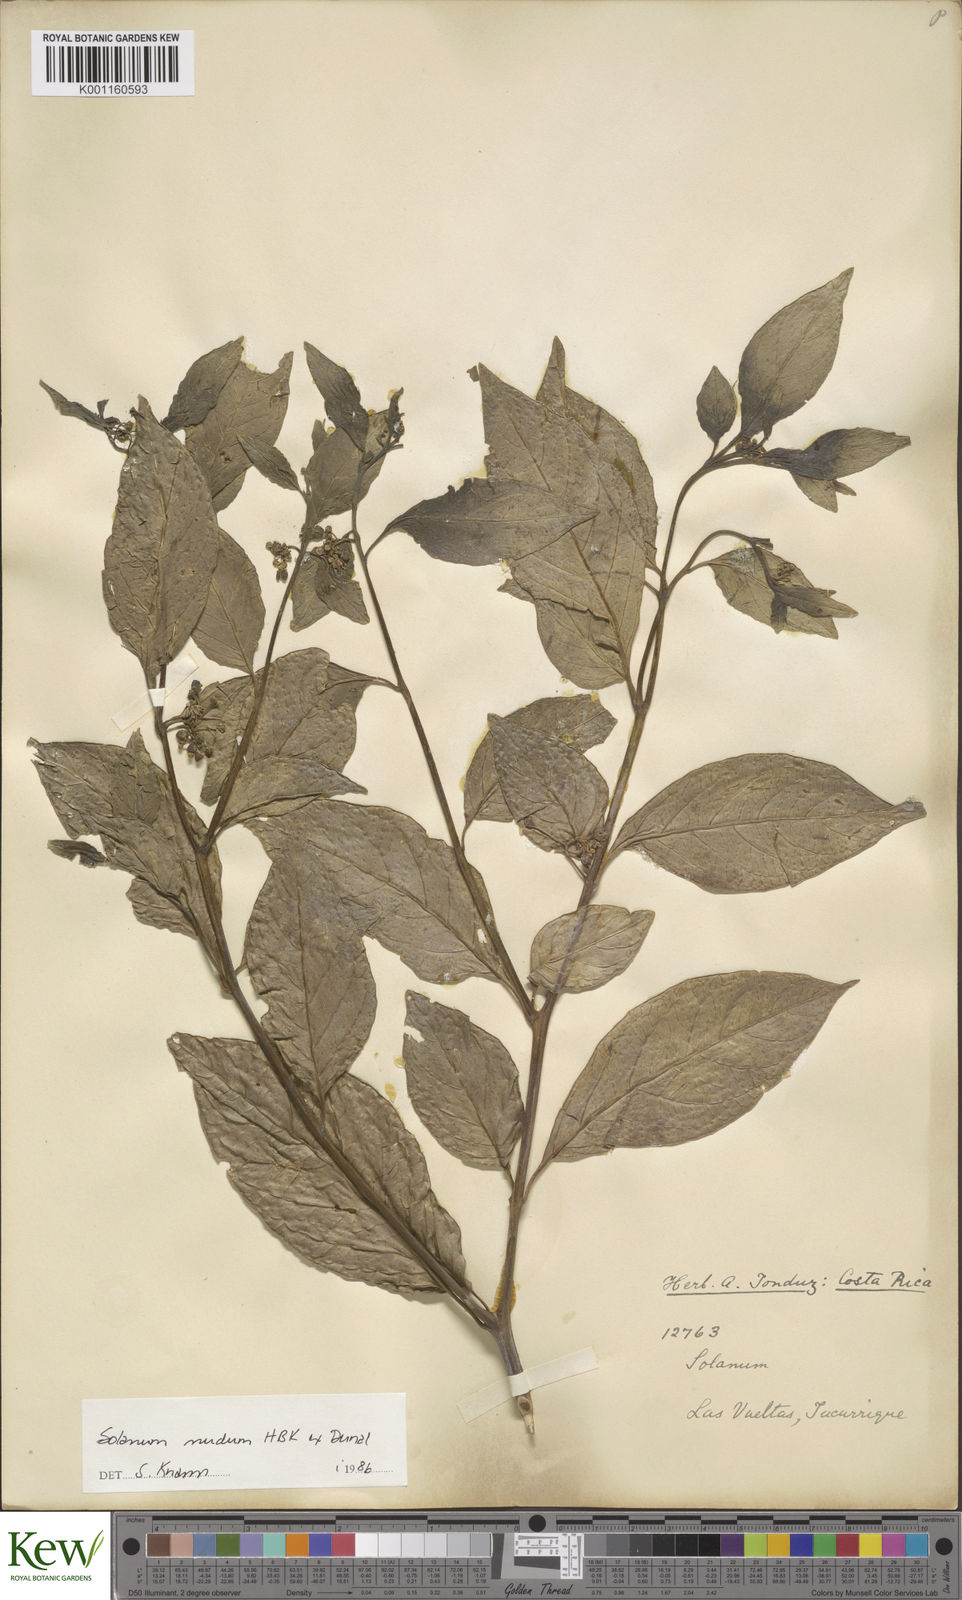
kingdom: Plantae
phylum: Tracheophyta
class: Magnoliopsida
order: Solanales
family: Solanaceae
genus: Solanum
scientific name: Solanum nudum
